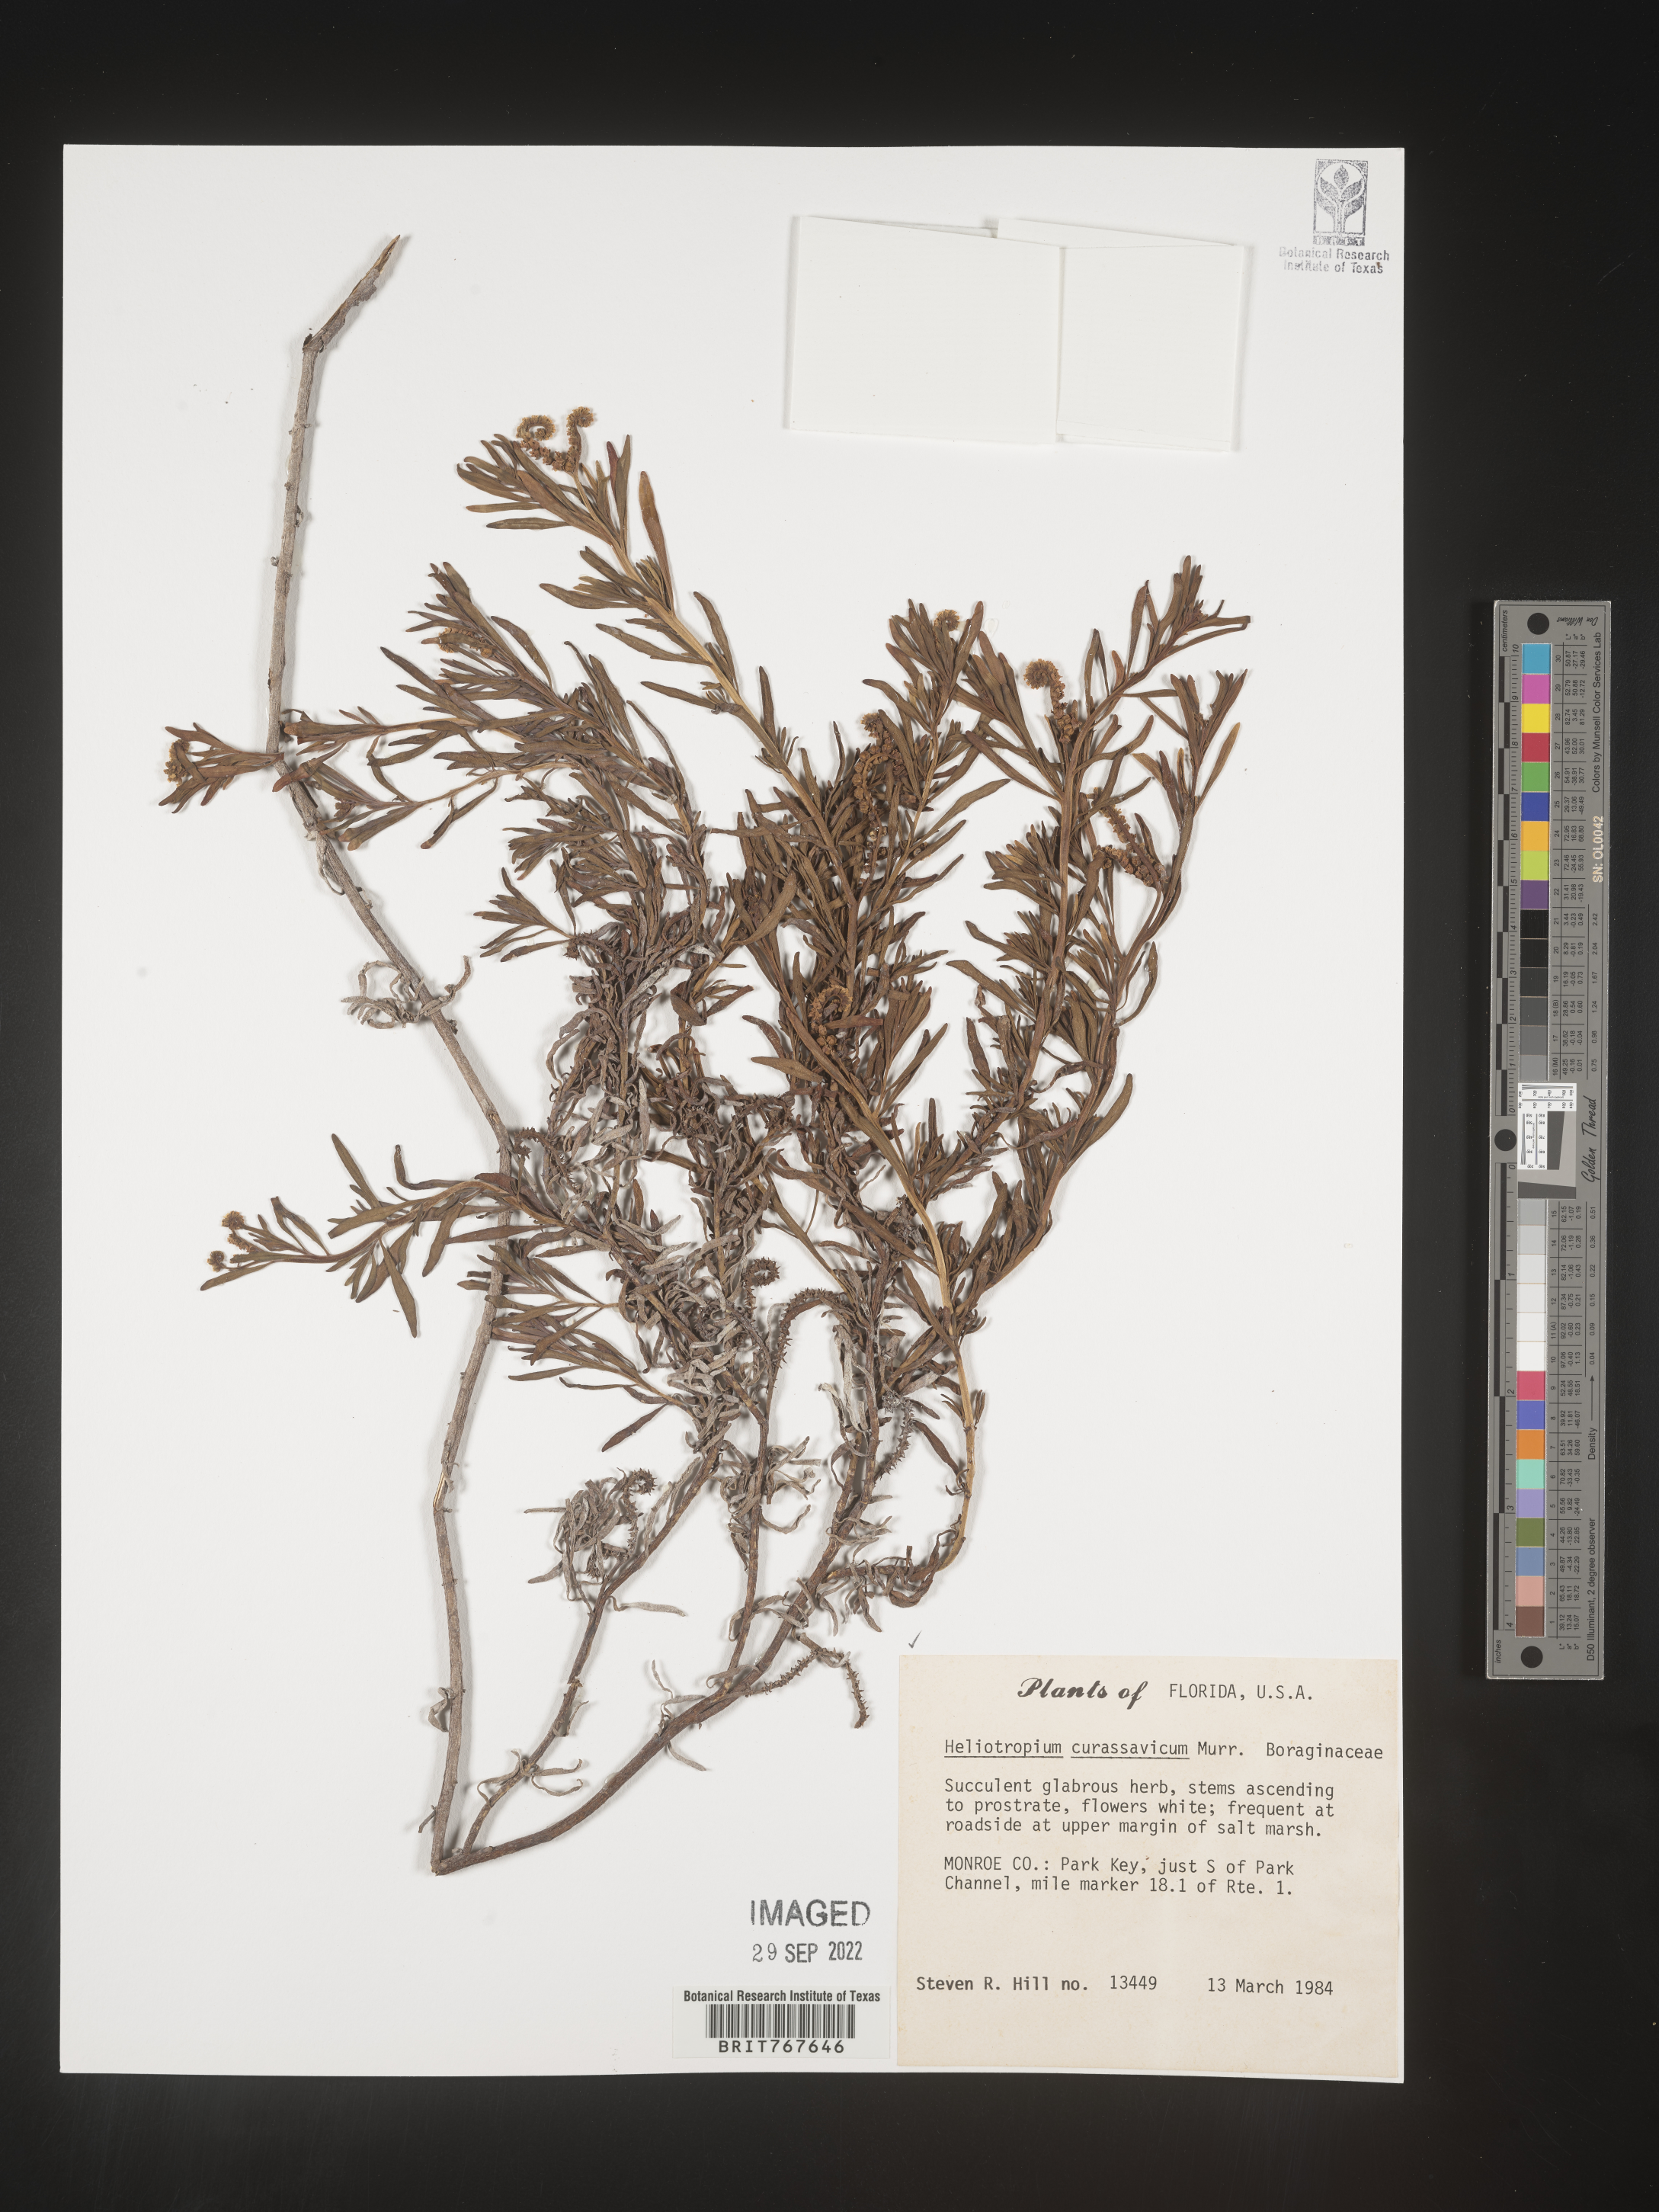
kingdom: Plantae
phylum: Tracheophyta
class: Magnoliopsida
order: Boraginales
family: Heliotropiaceae
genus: Heliotropium
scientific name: Heliotropium curassavicum
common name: Seaside heliotrope
